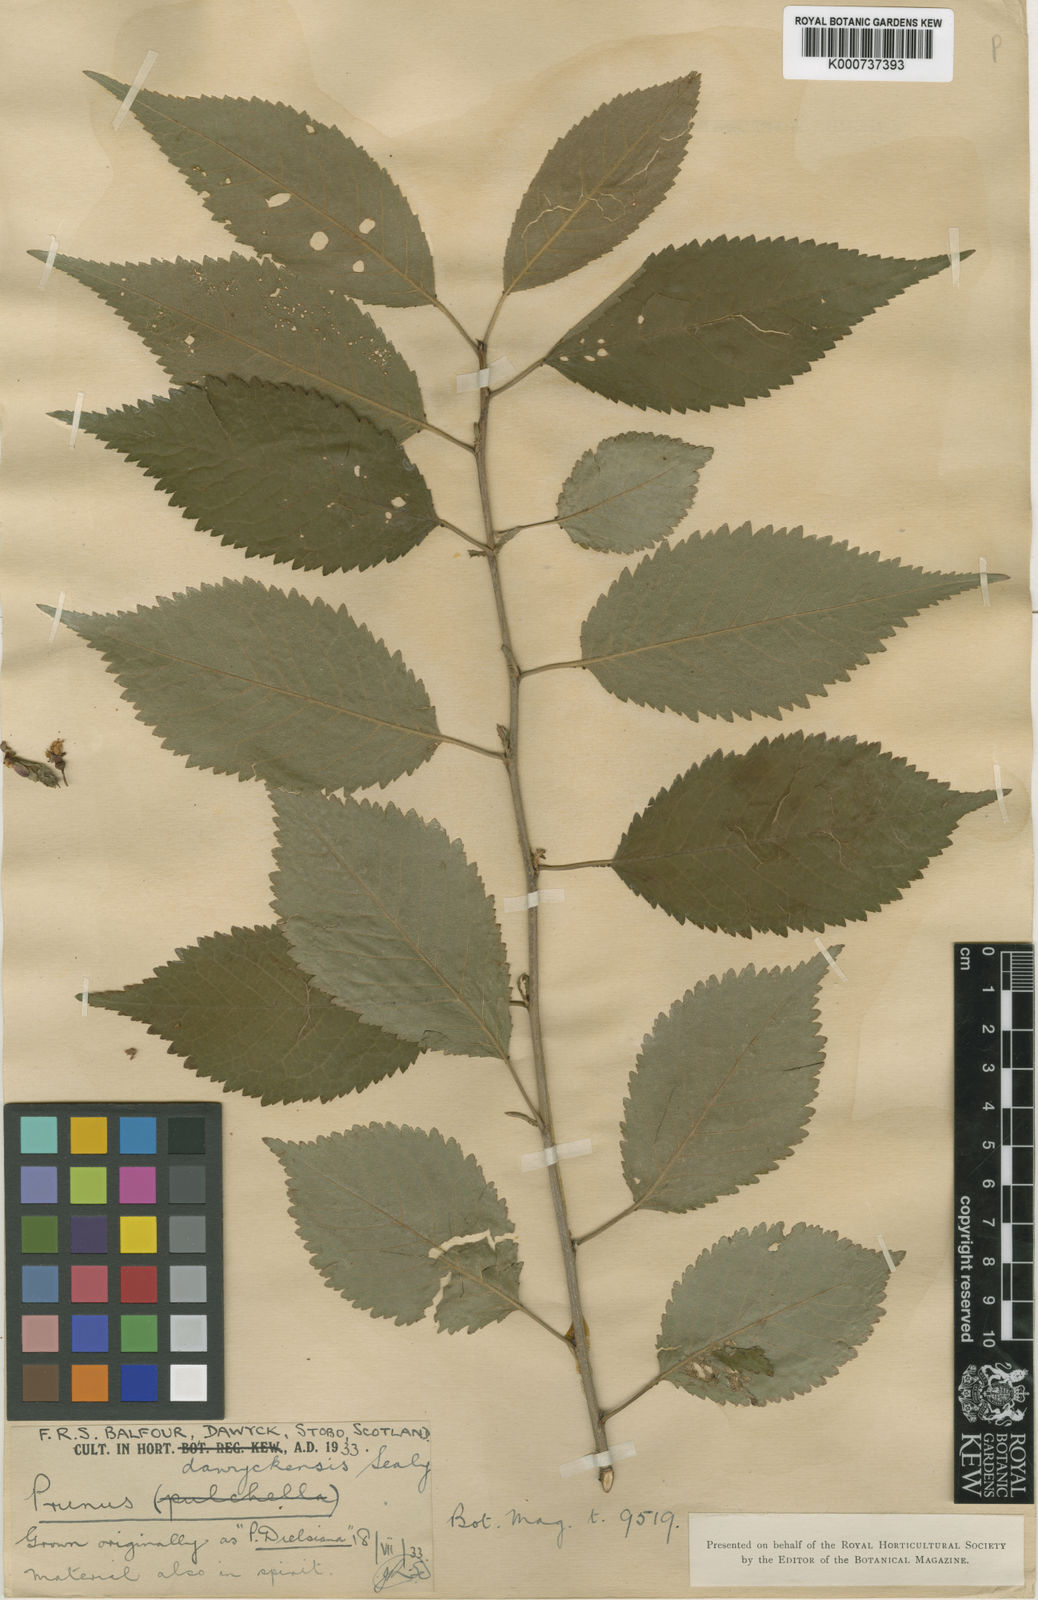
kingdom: Plantae
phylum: Tracheophyta
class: Magnoliopsida
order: Rosales
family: Rosaceae
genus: Prunus
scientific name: Prunus dawyckensis
